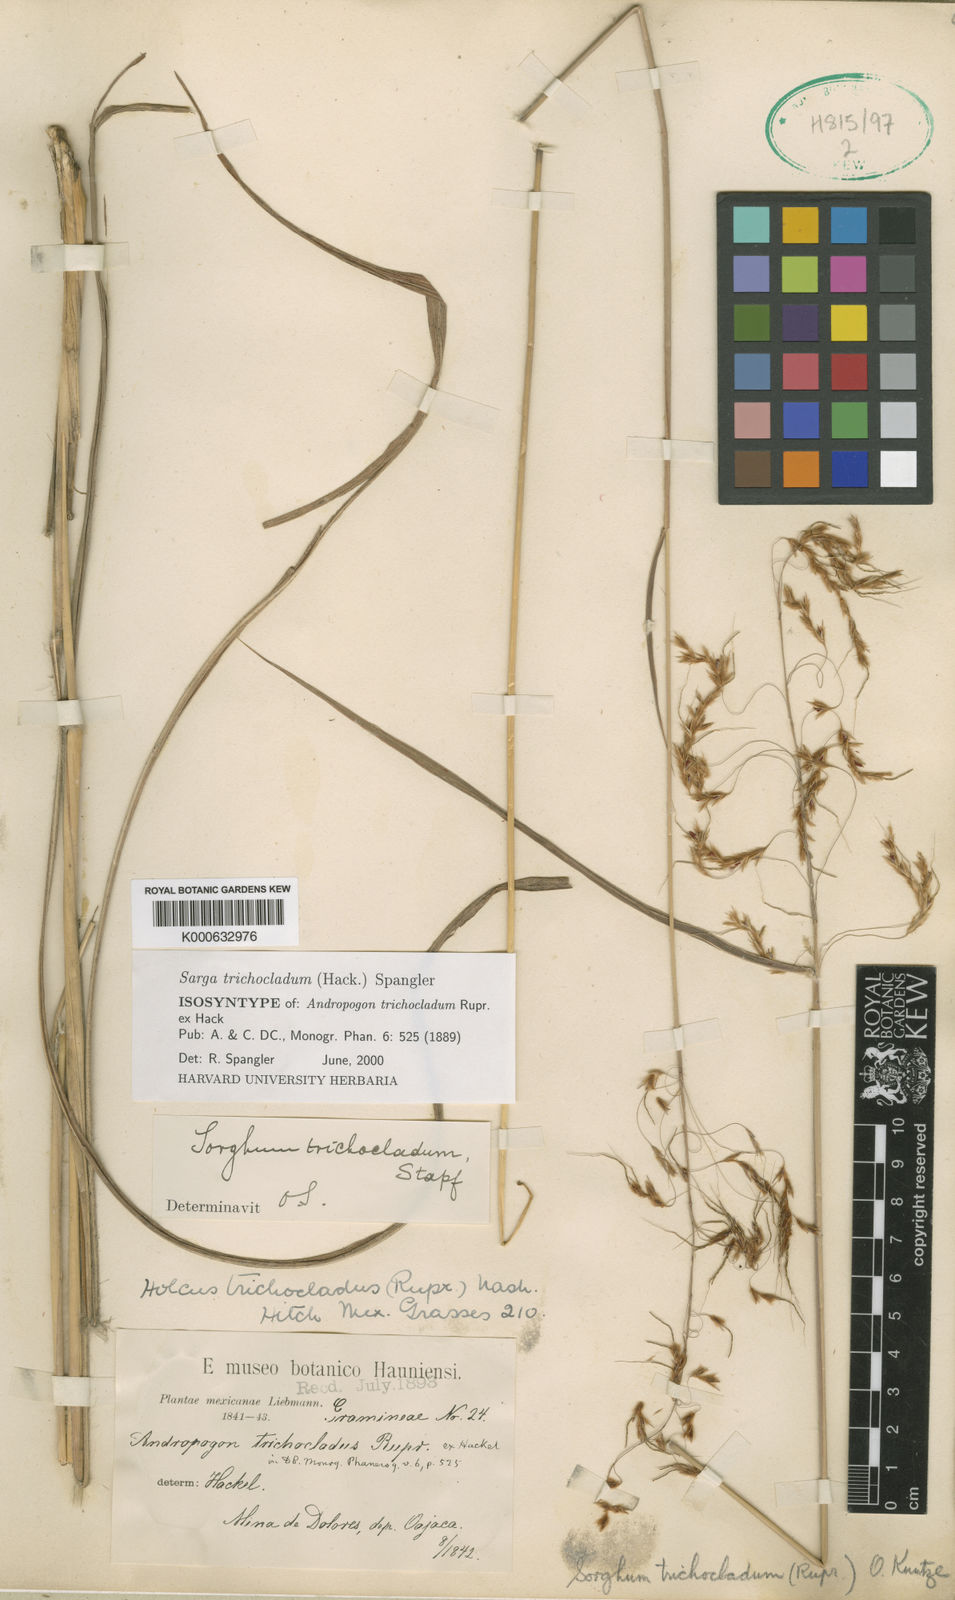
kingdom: Plantae
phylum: Tracheophyta
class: Liliopsida
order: Poales
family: Poaceae
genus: Sarga
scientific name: Sarga trichoclada
